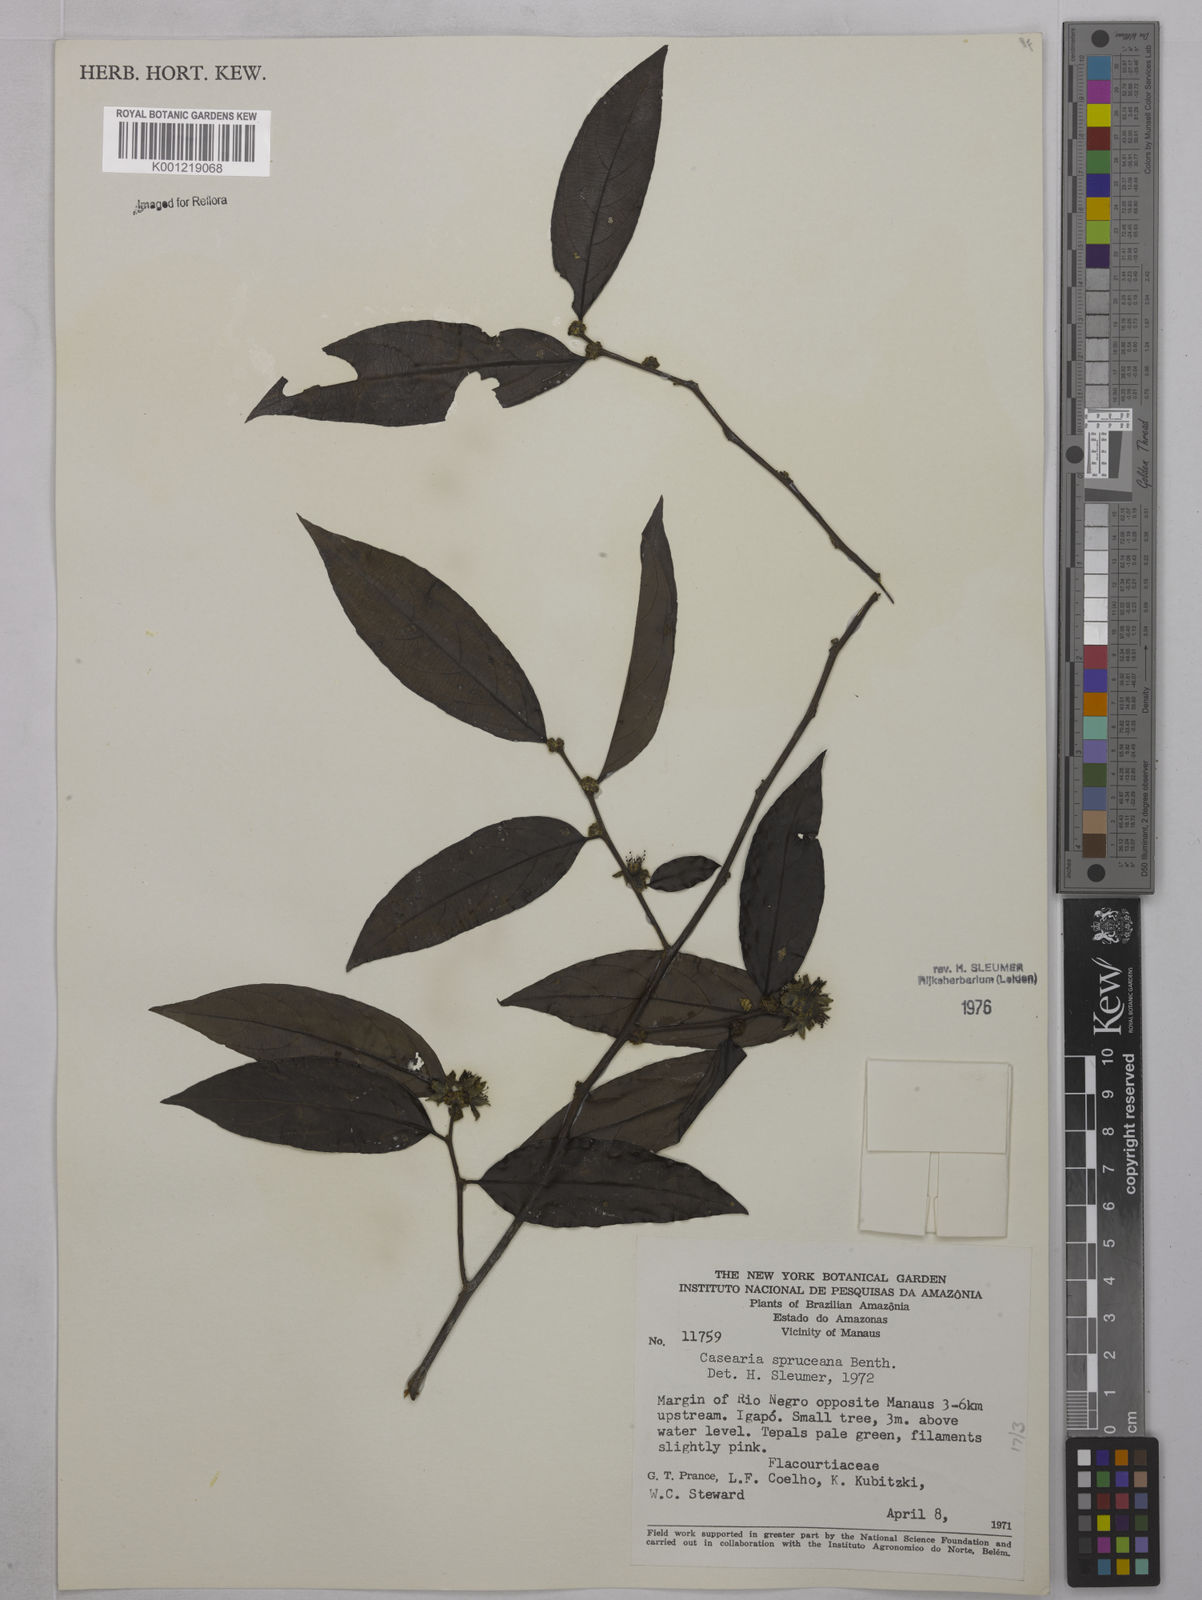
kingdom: Plantae
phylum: Tracheophyta
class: Magnoliopsida
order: Malpighiales
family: Salicaceae
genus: Piparea
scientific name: Piparea spruceana
